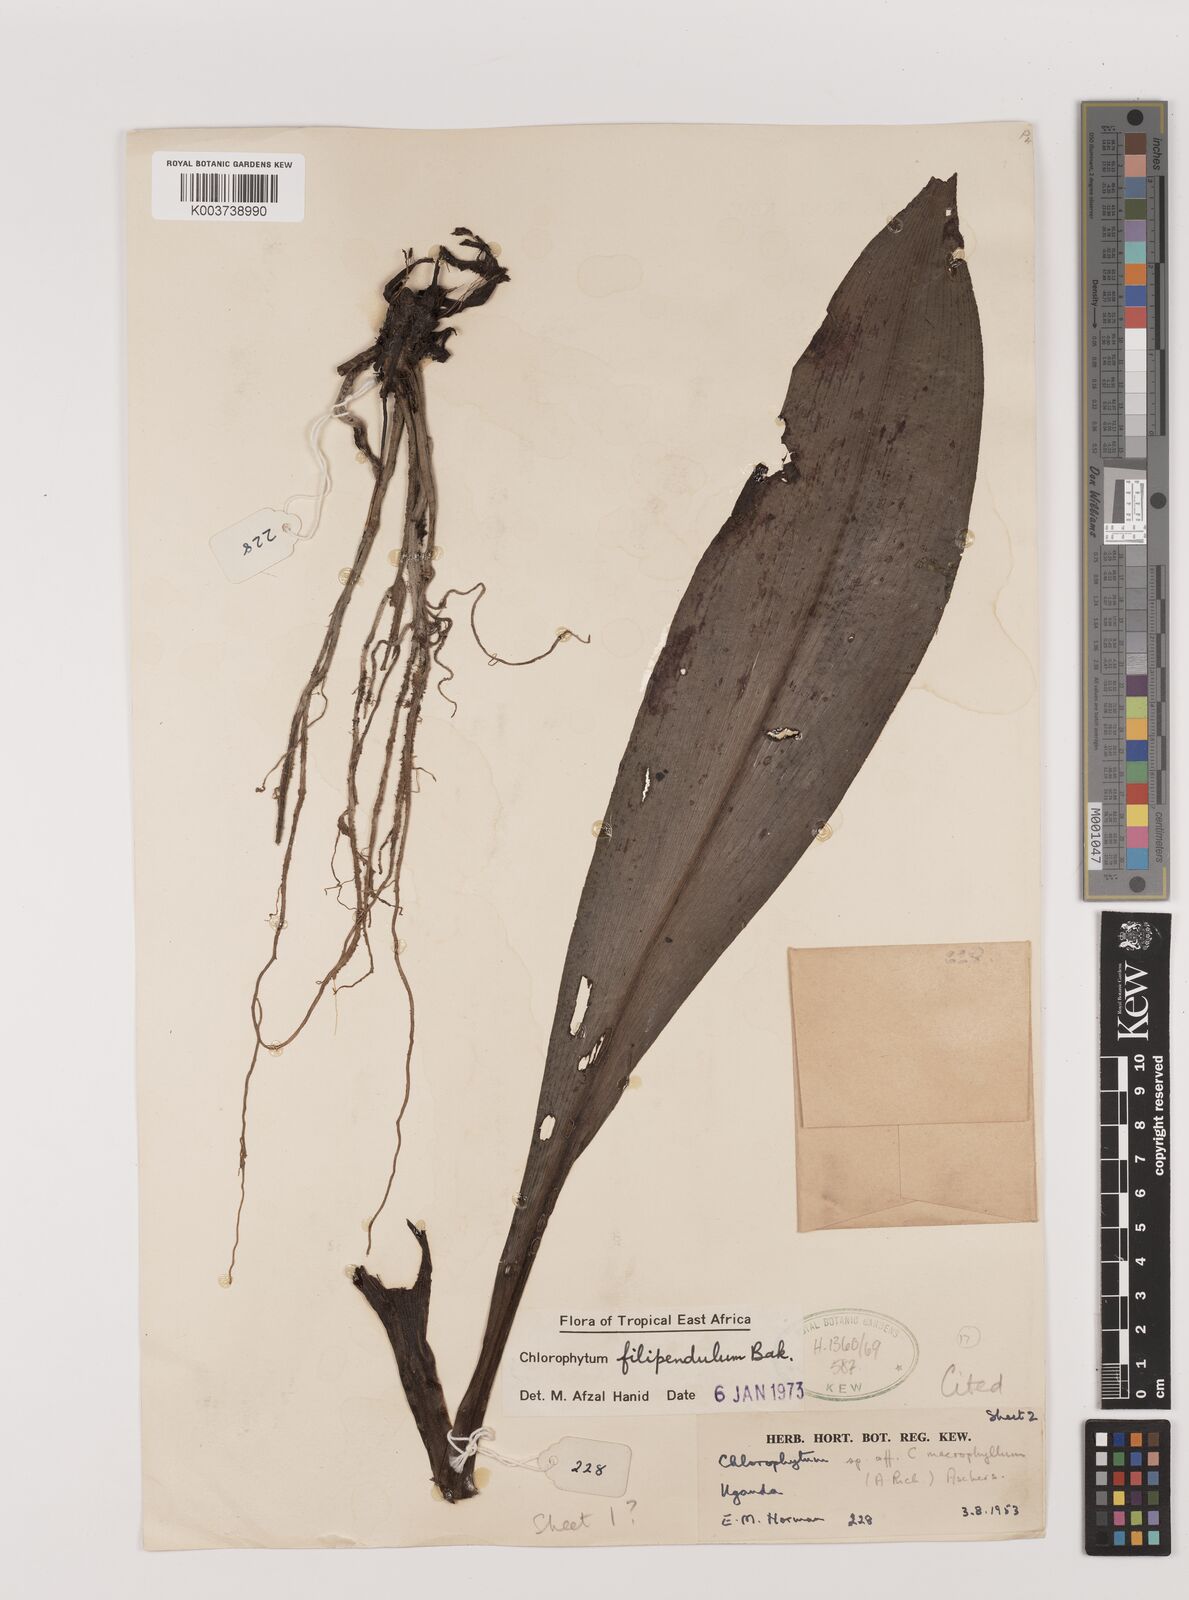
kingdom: Plantae
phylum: Tracheophyta
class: Liliopsida
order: Asparagales
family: Asparagaceae
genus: Chlorophytum
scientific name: Chlorophytum filipendulum
